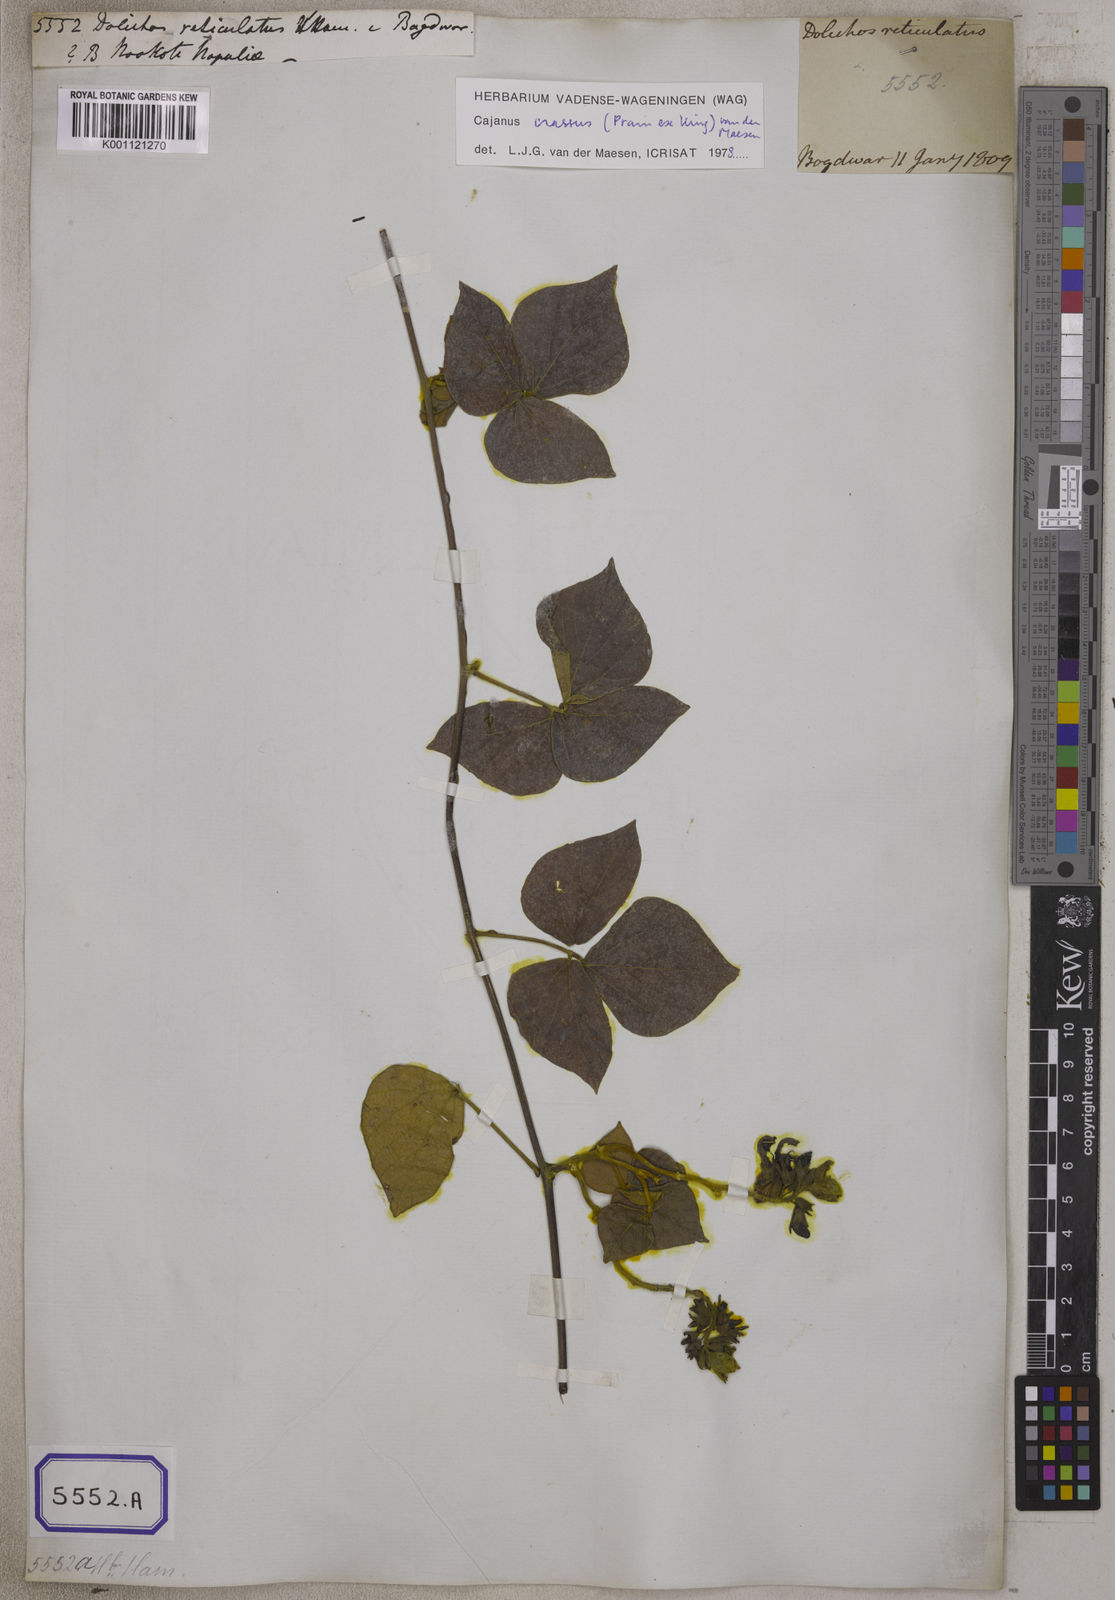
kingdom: Plantae
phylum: Tracheophyta
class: Magnoliopsida
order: Fabales
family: Fabaceae
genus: Dolichos
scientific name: Dolichos
